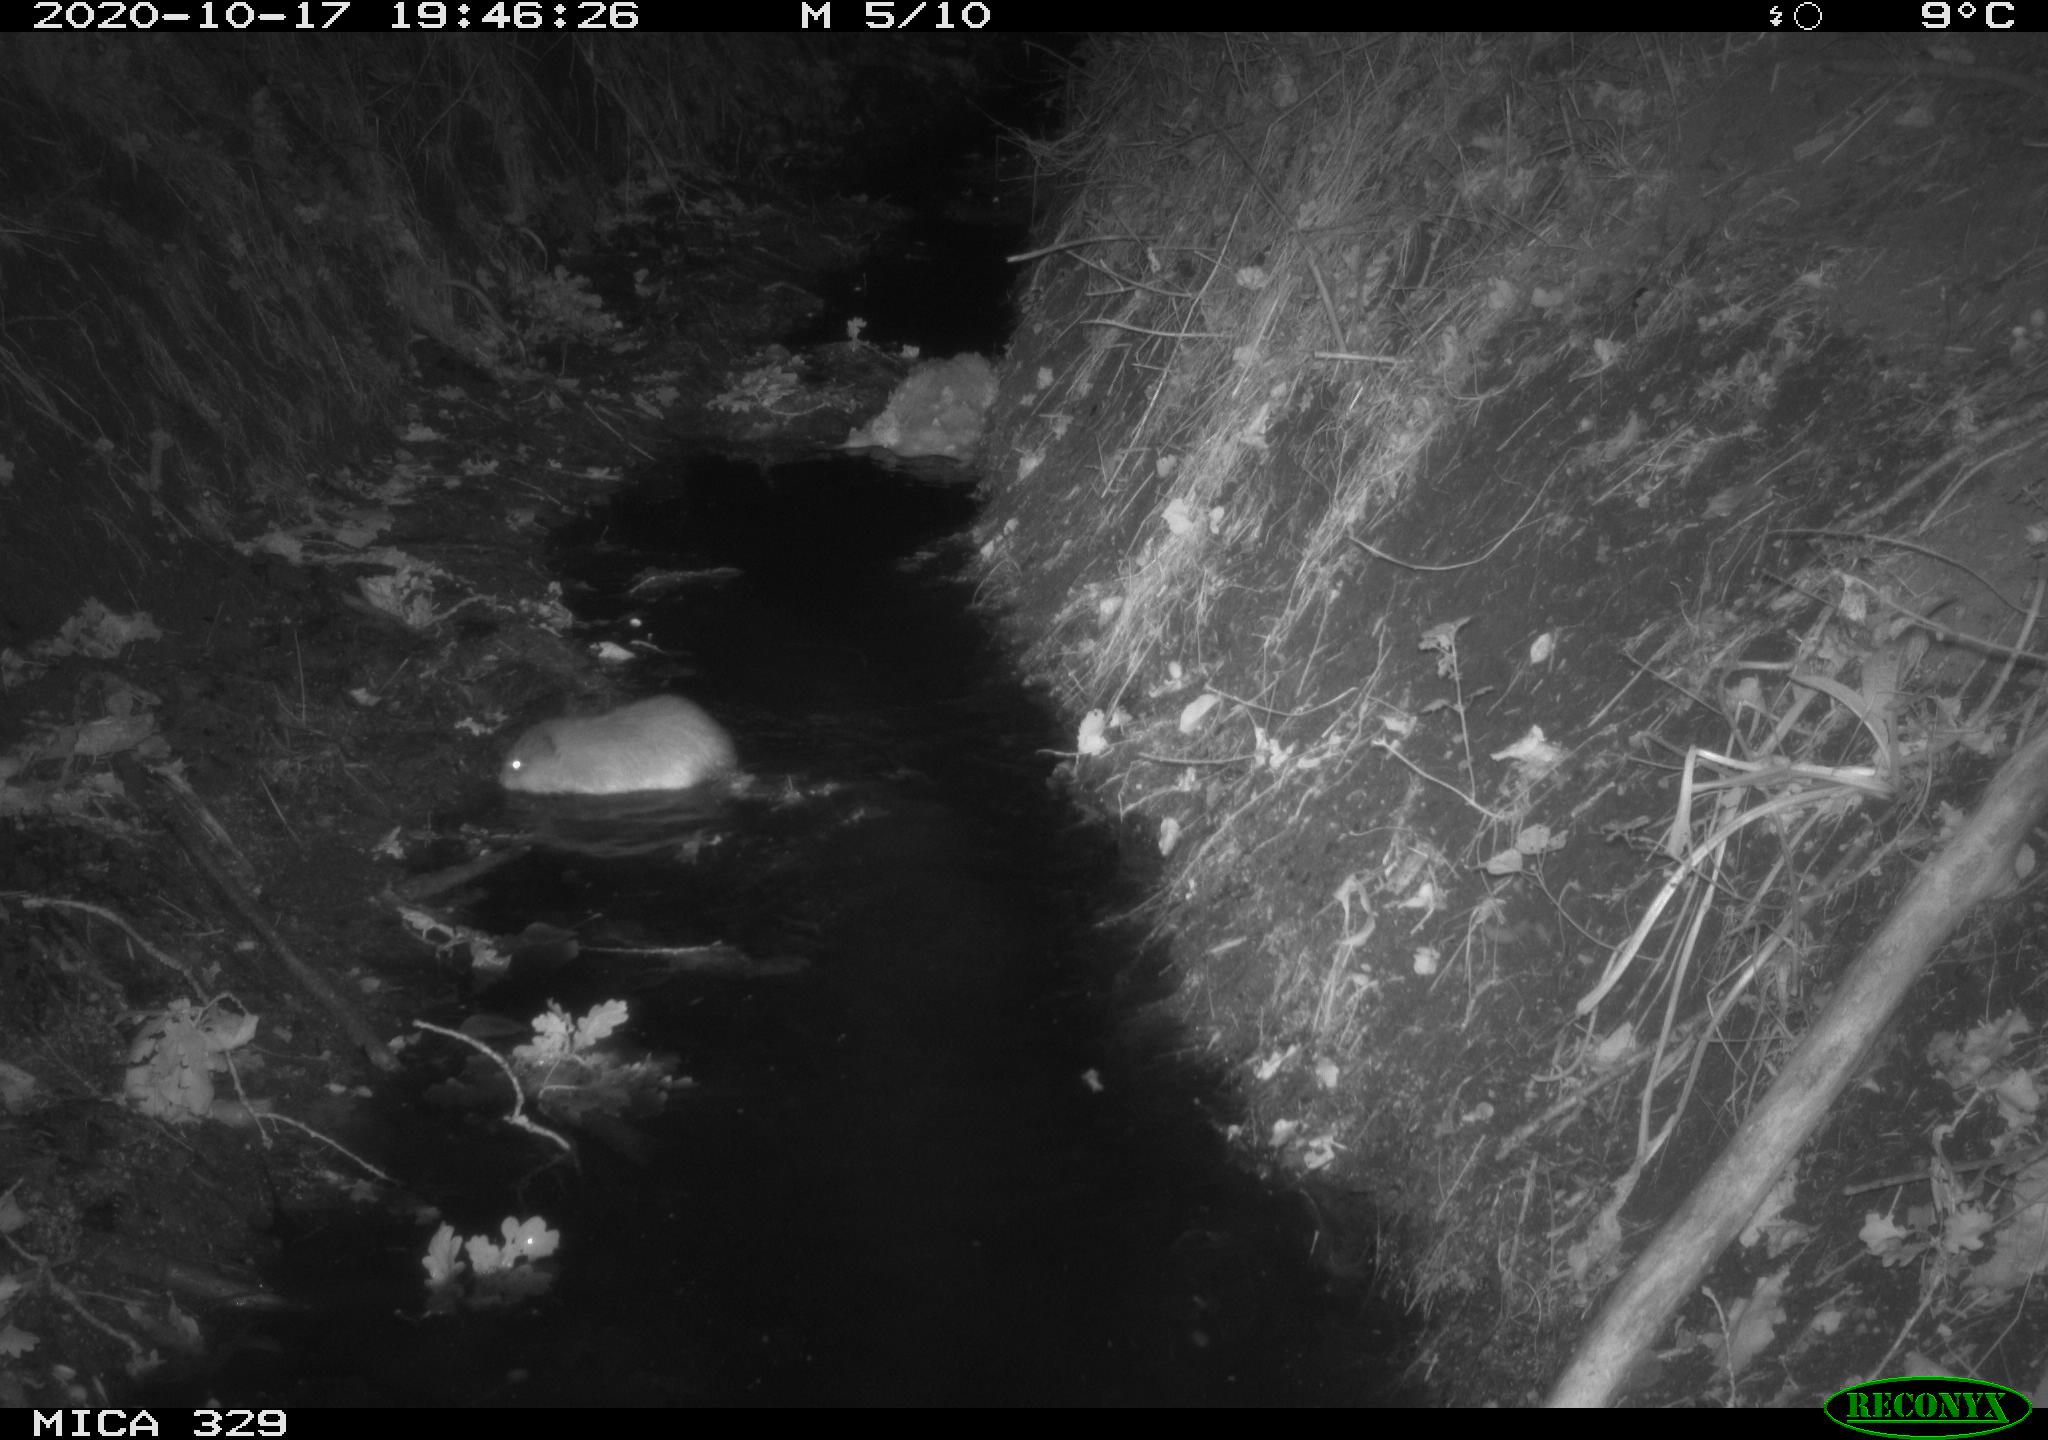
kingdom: Animalia
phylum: Chordata
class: Mammalia
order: Rodentia
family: Cricetidae
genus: Ondatra
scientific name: Ondatra zibethicus
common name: Muskrat
